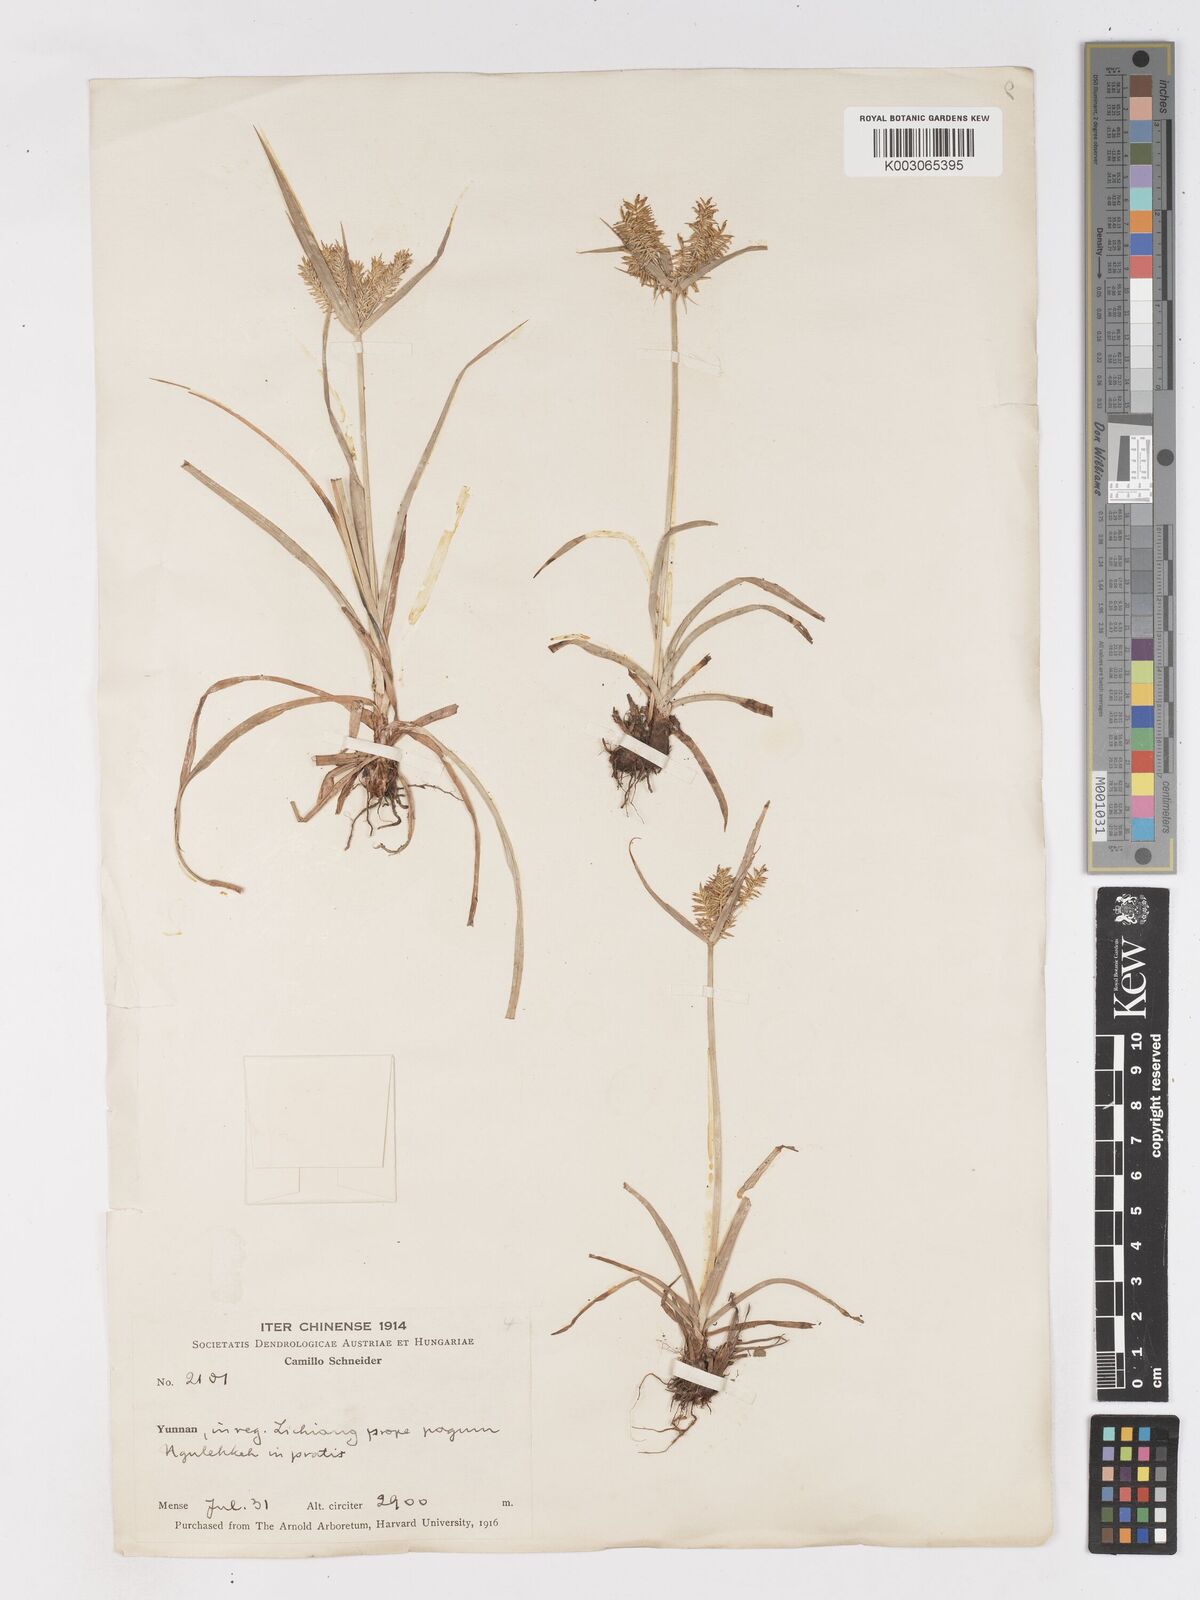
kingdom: Plantae
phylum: Tracheophyta
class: Liliopsida
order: Poales
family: Cyperaceae
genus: Cyperus
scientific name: Cyperus cyperoides
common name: Pacific island flat sedge
